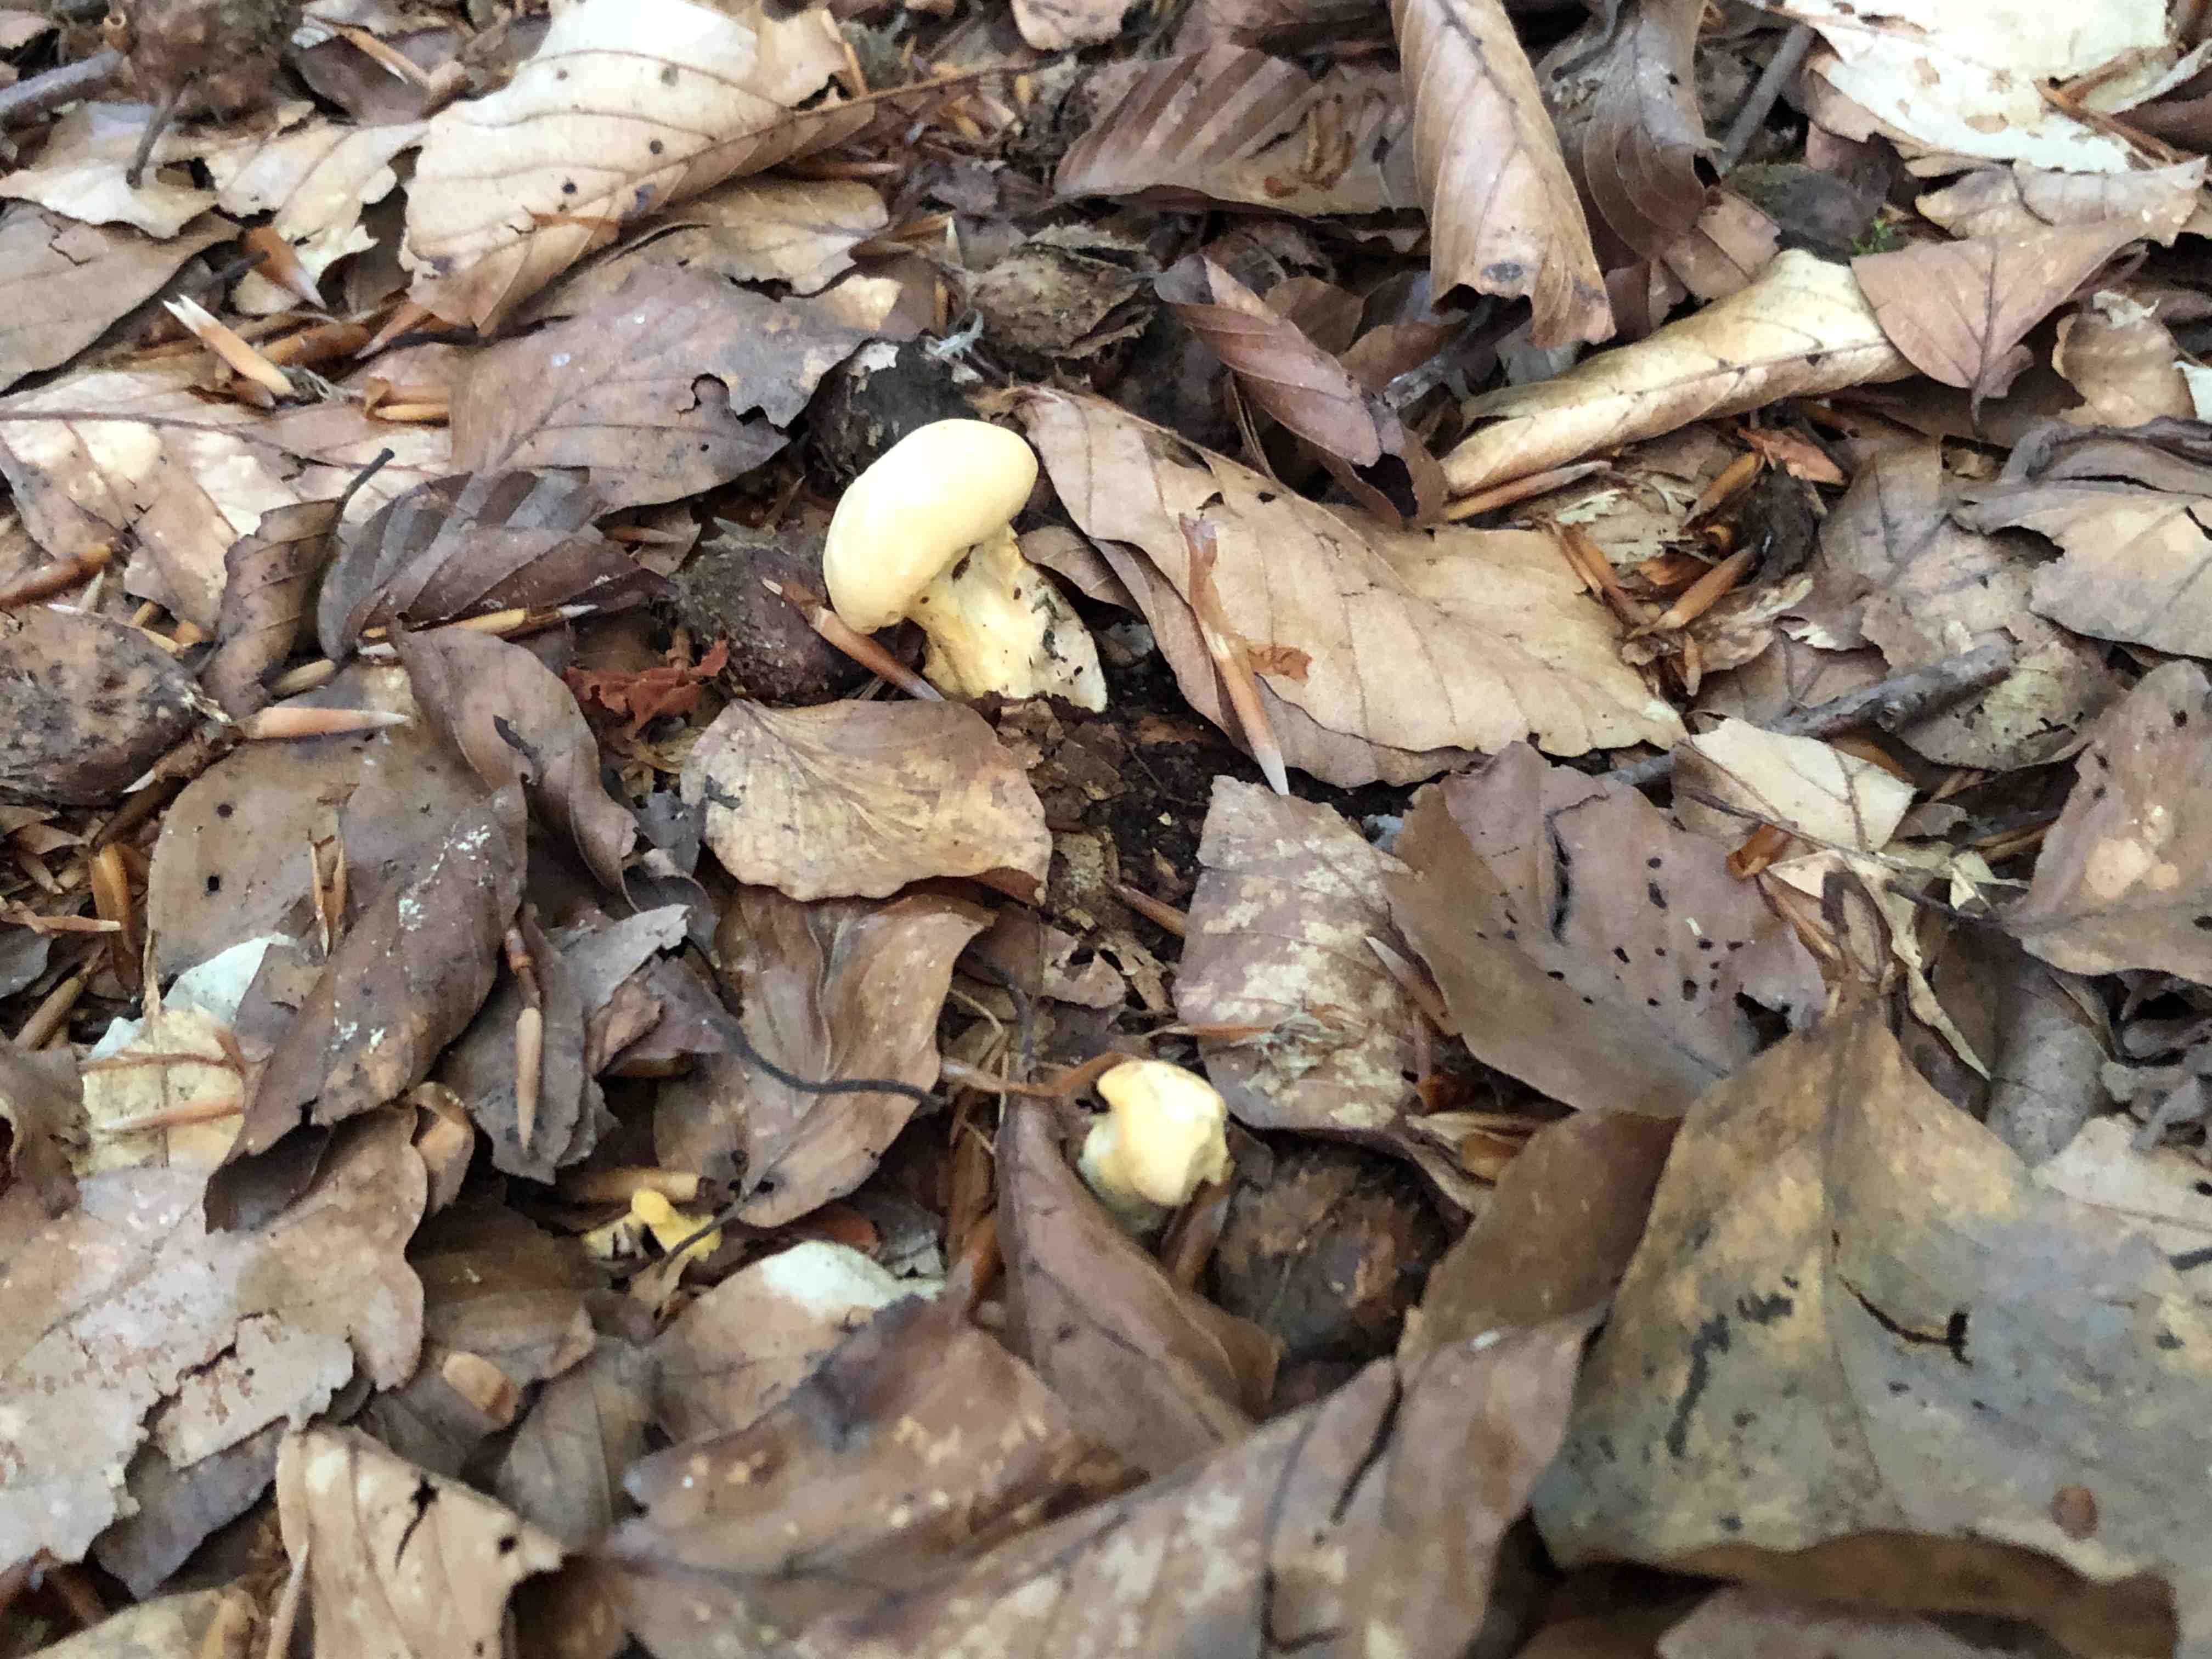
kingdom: Fungi
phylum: Basidiomycota
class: Agaricomycetes
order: Cantharellales
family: Hydnaceae
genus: Cantharellus
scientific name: Cantharellus pallens
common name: bleg kantarel
